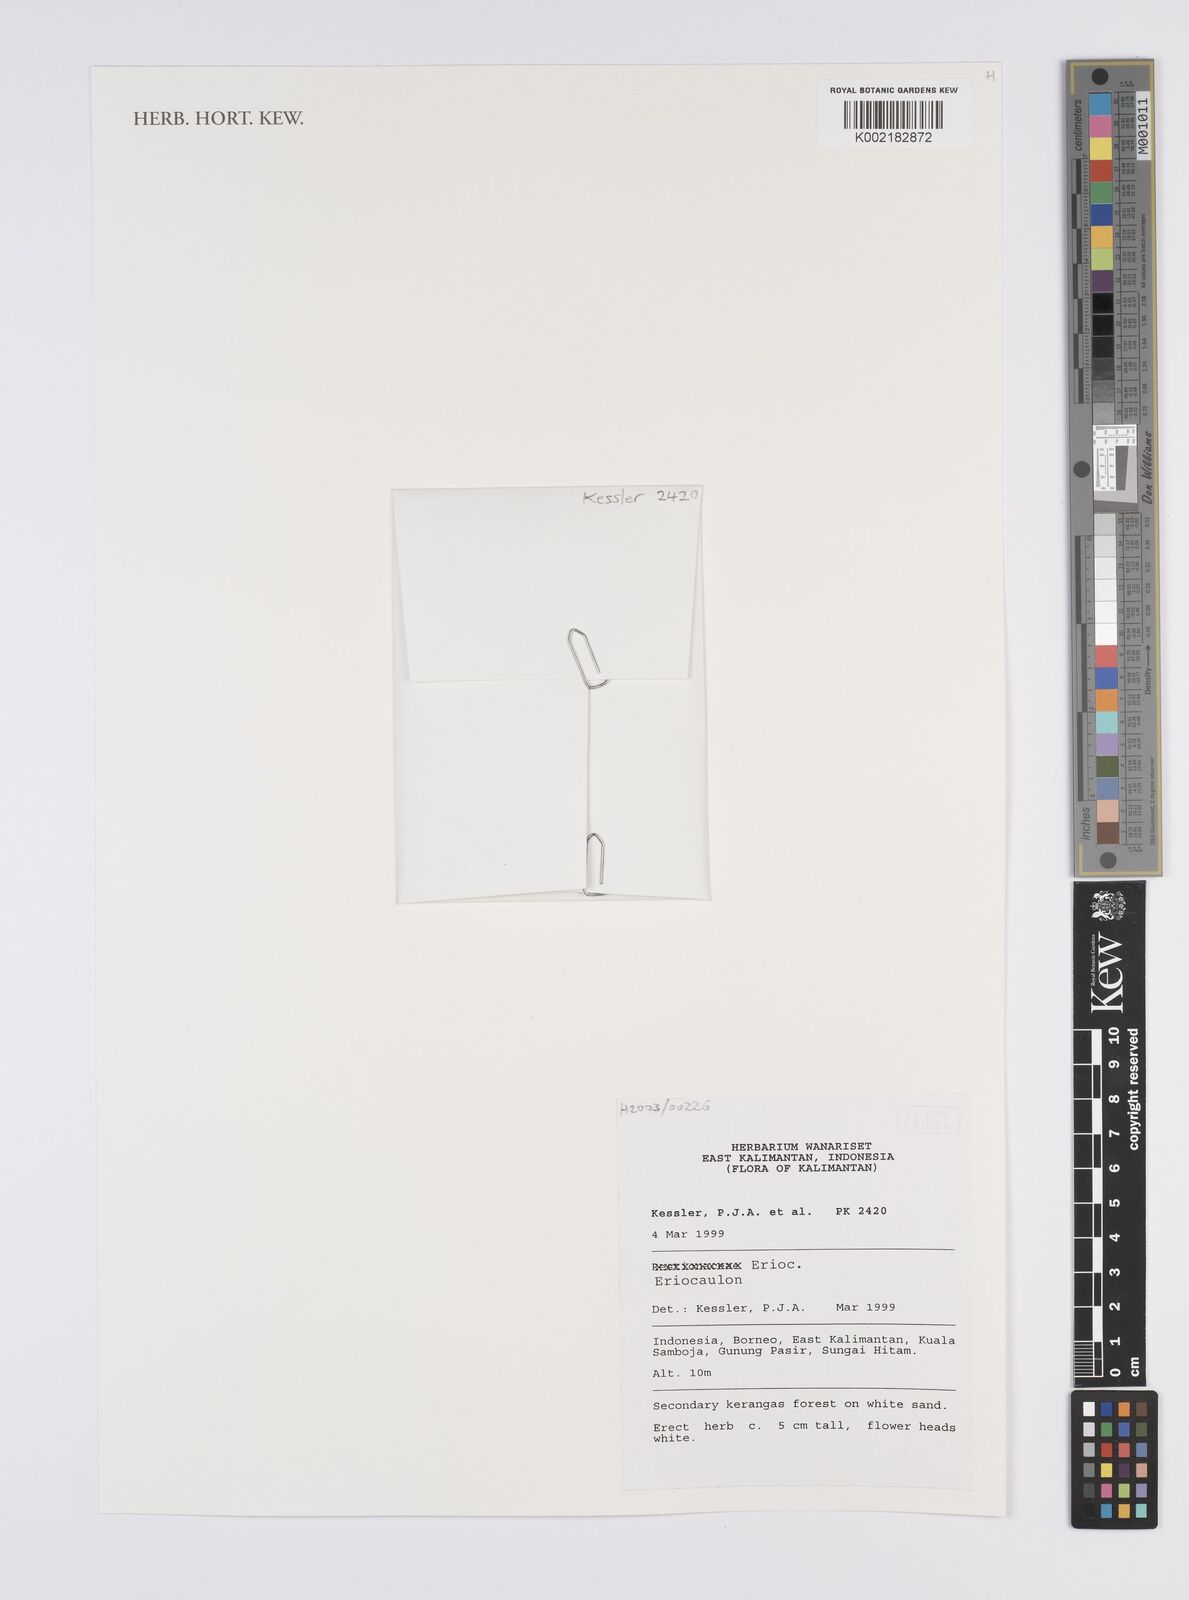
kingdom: Plantae
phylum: Tracheophyta
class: Liliopsida
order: Poales
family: Eriocaulaceae
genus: Eriocaulon
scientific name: Eriocaulon
